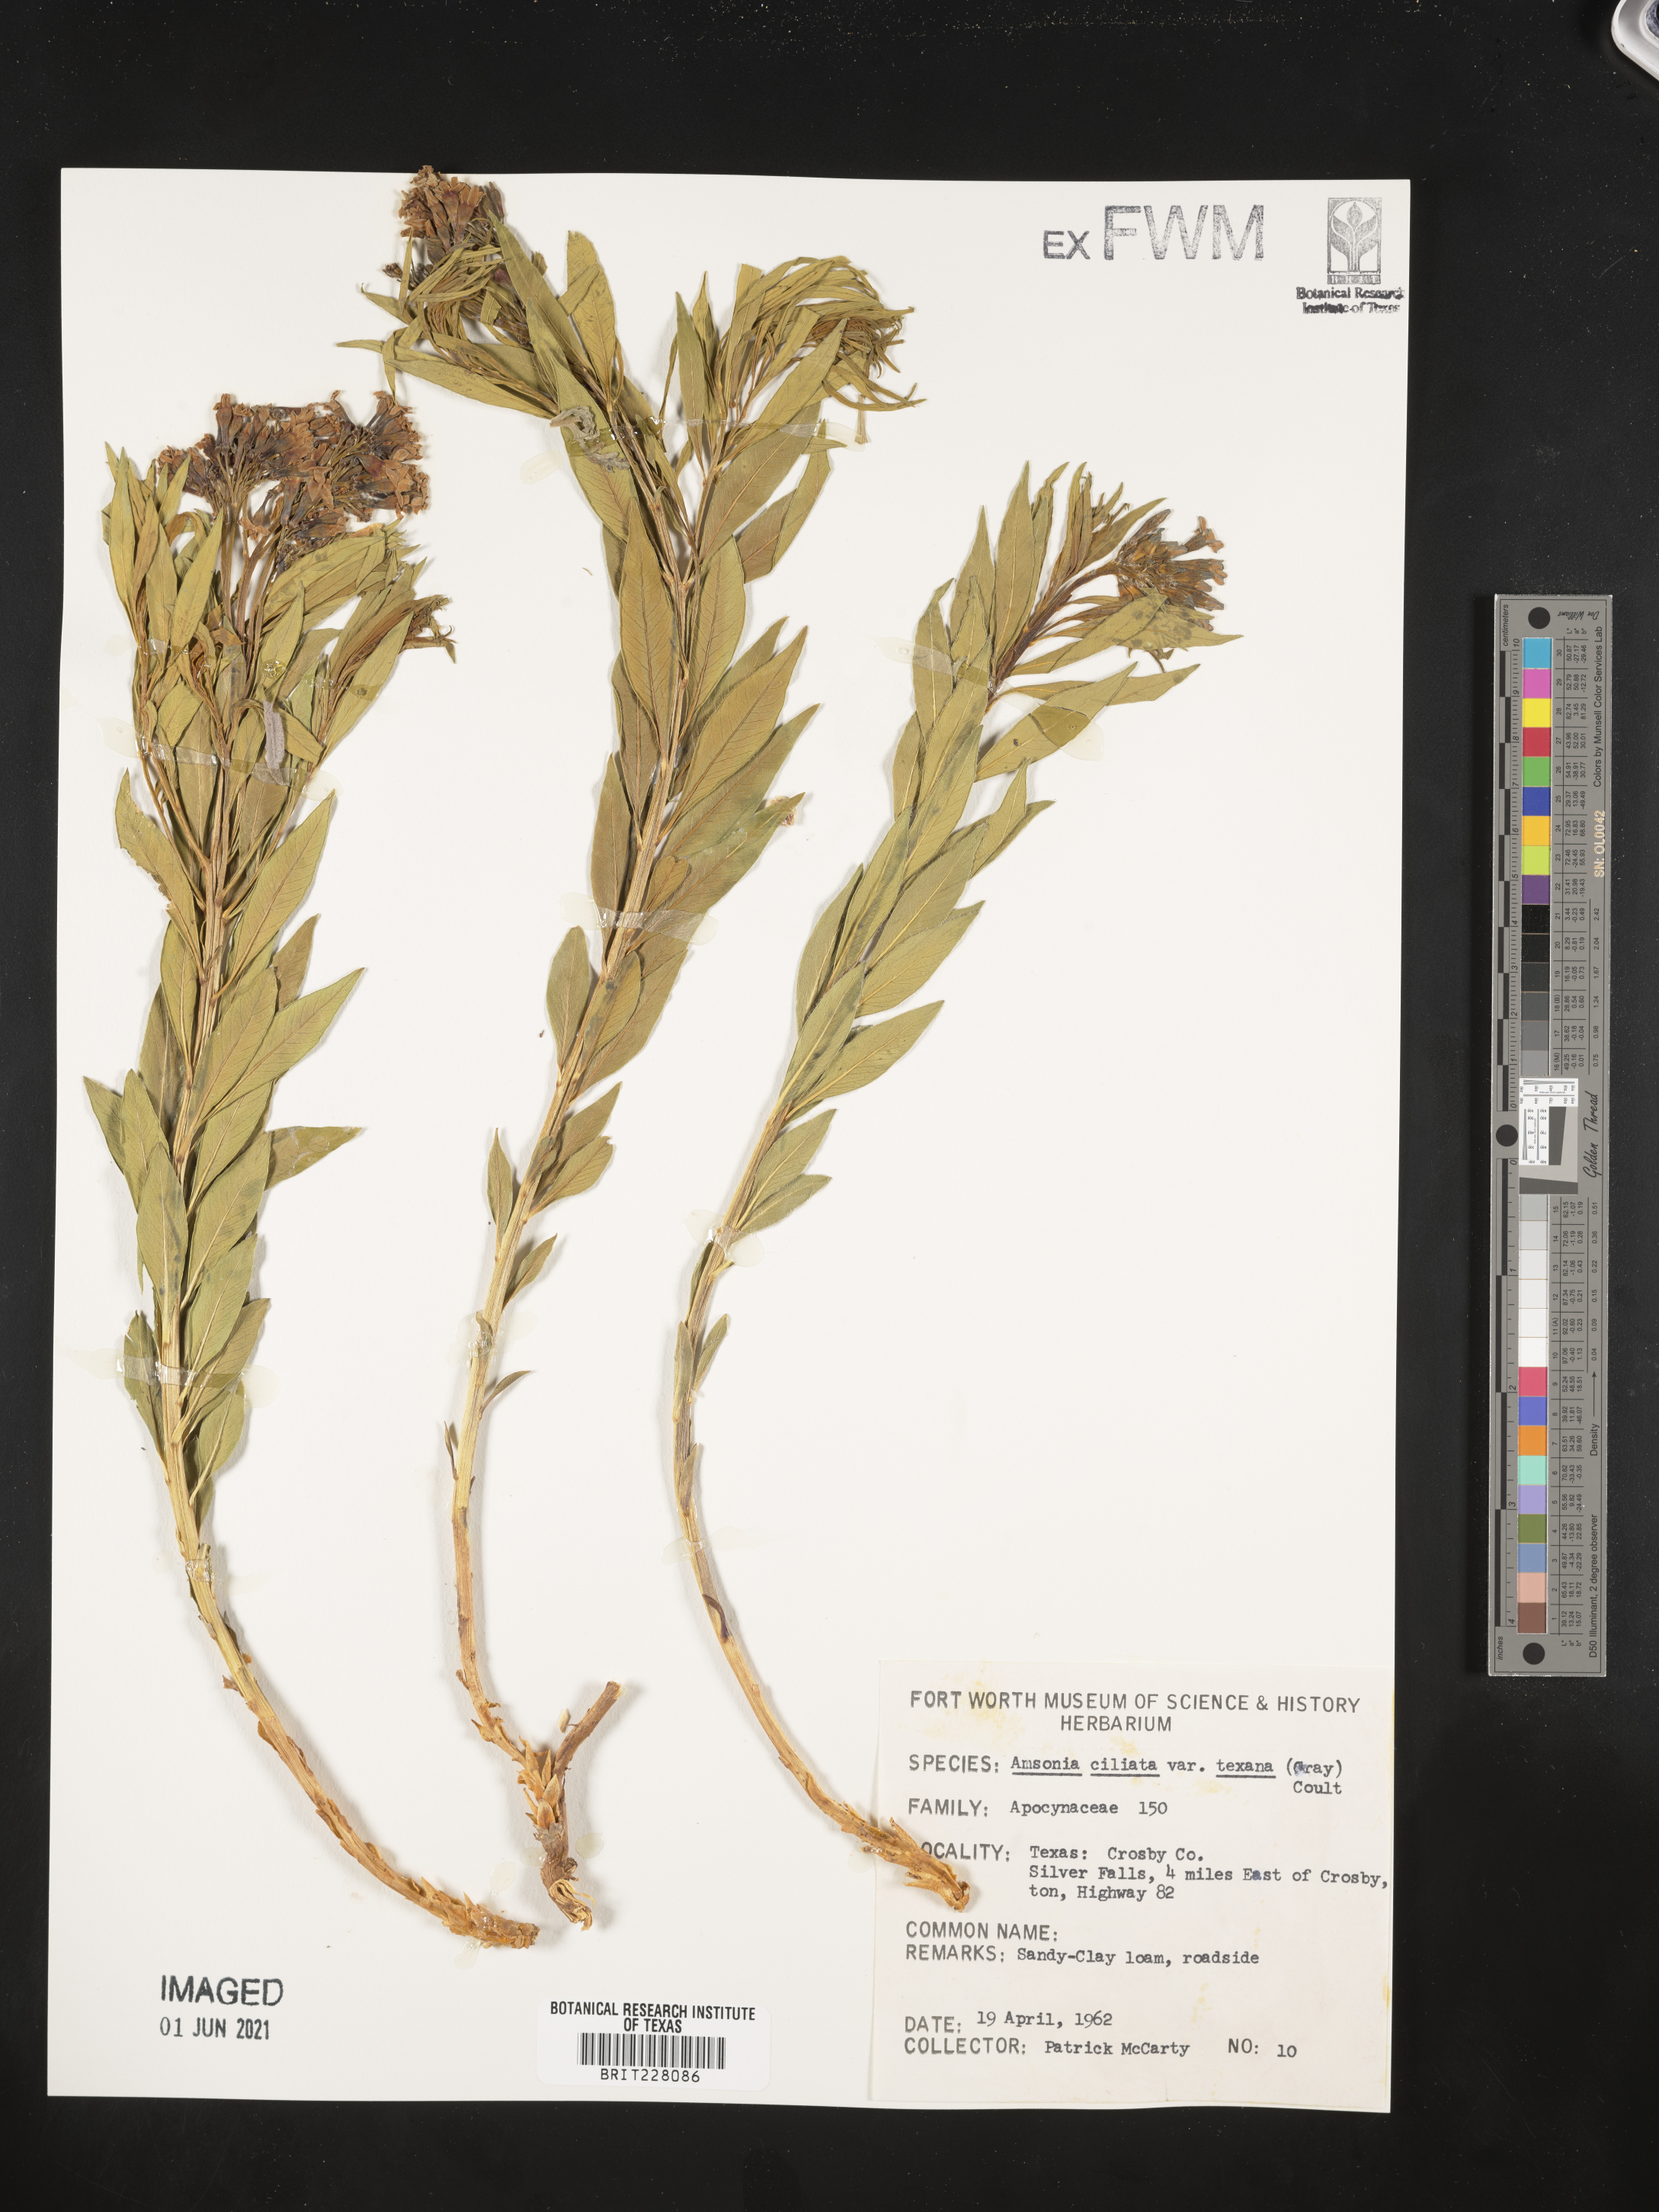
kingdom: Plantae
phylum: Tracheophyta
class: Magnoliopsida
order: Gentianales
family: Apocynaceae
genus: Amsonia
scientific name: Amsonia ciliata
